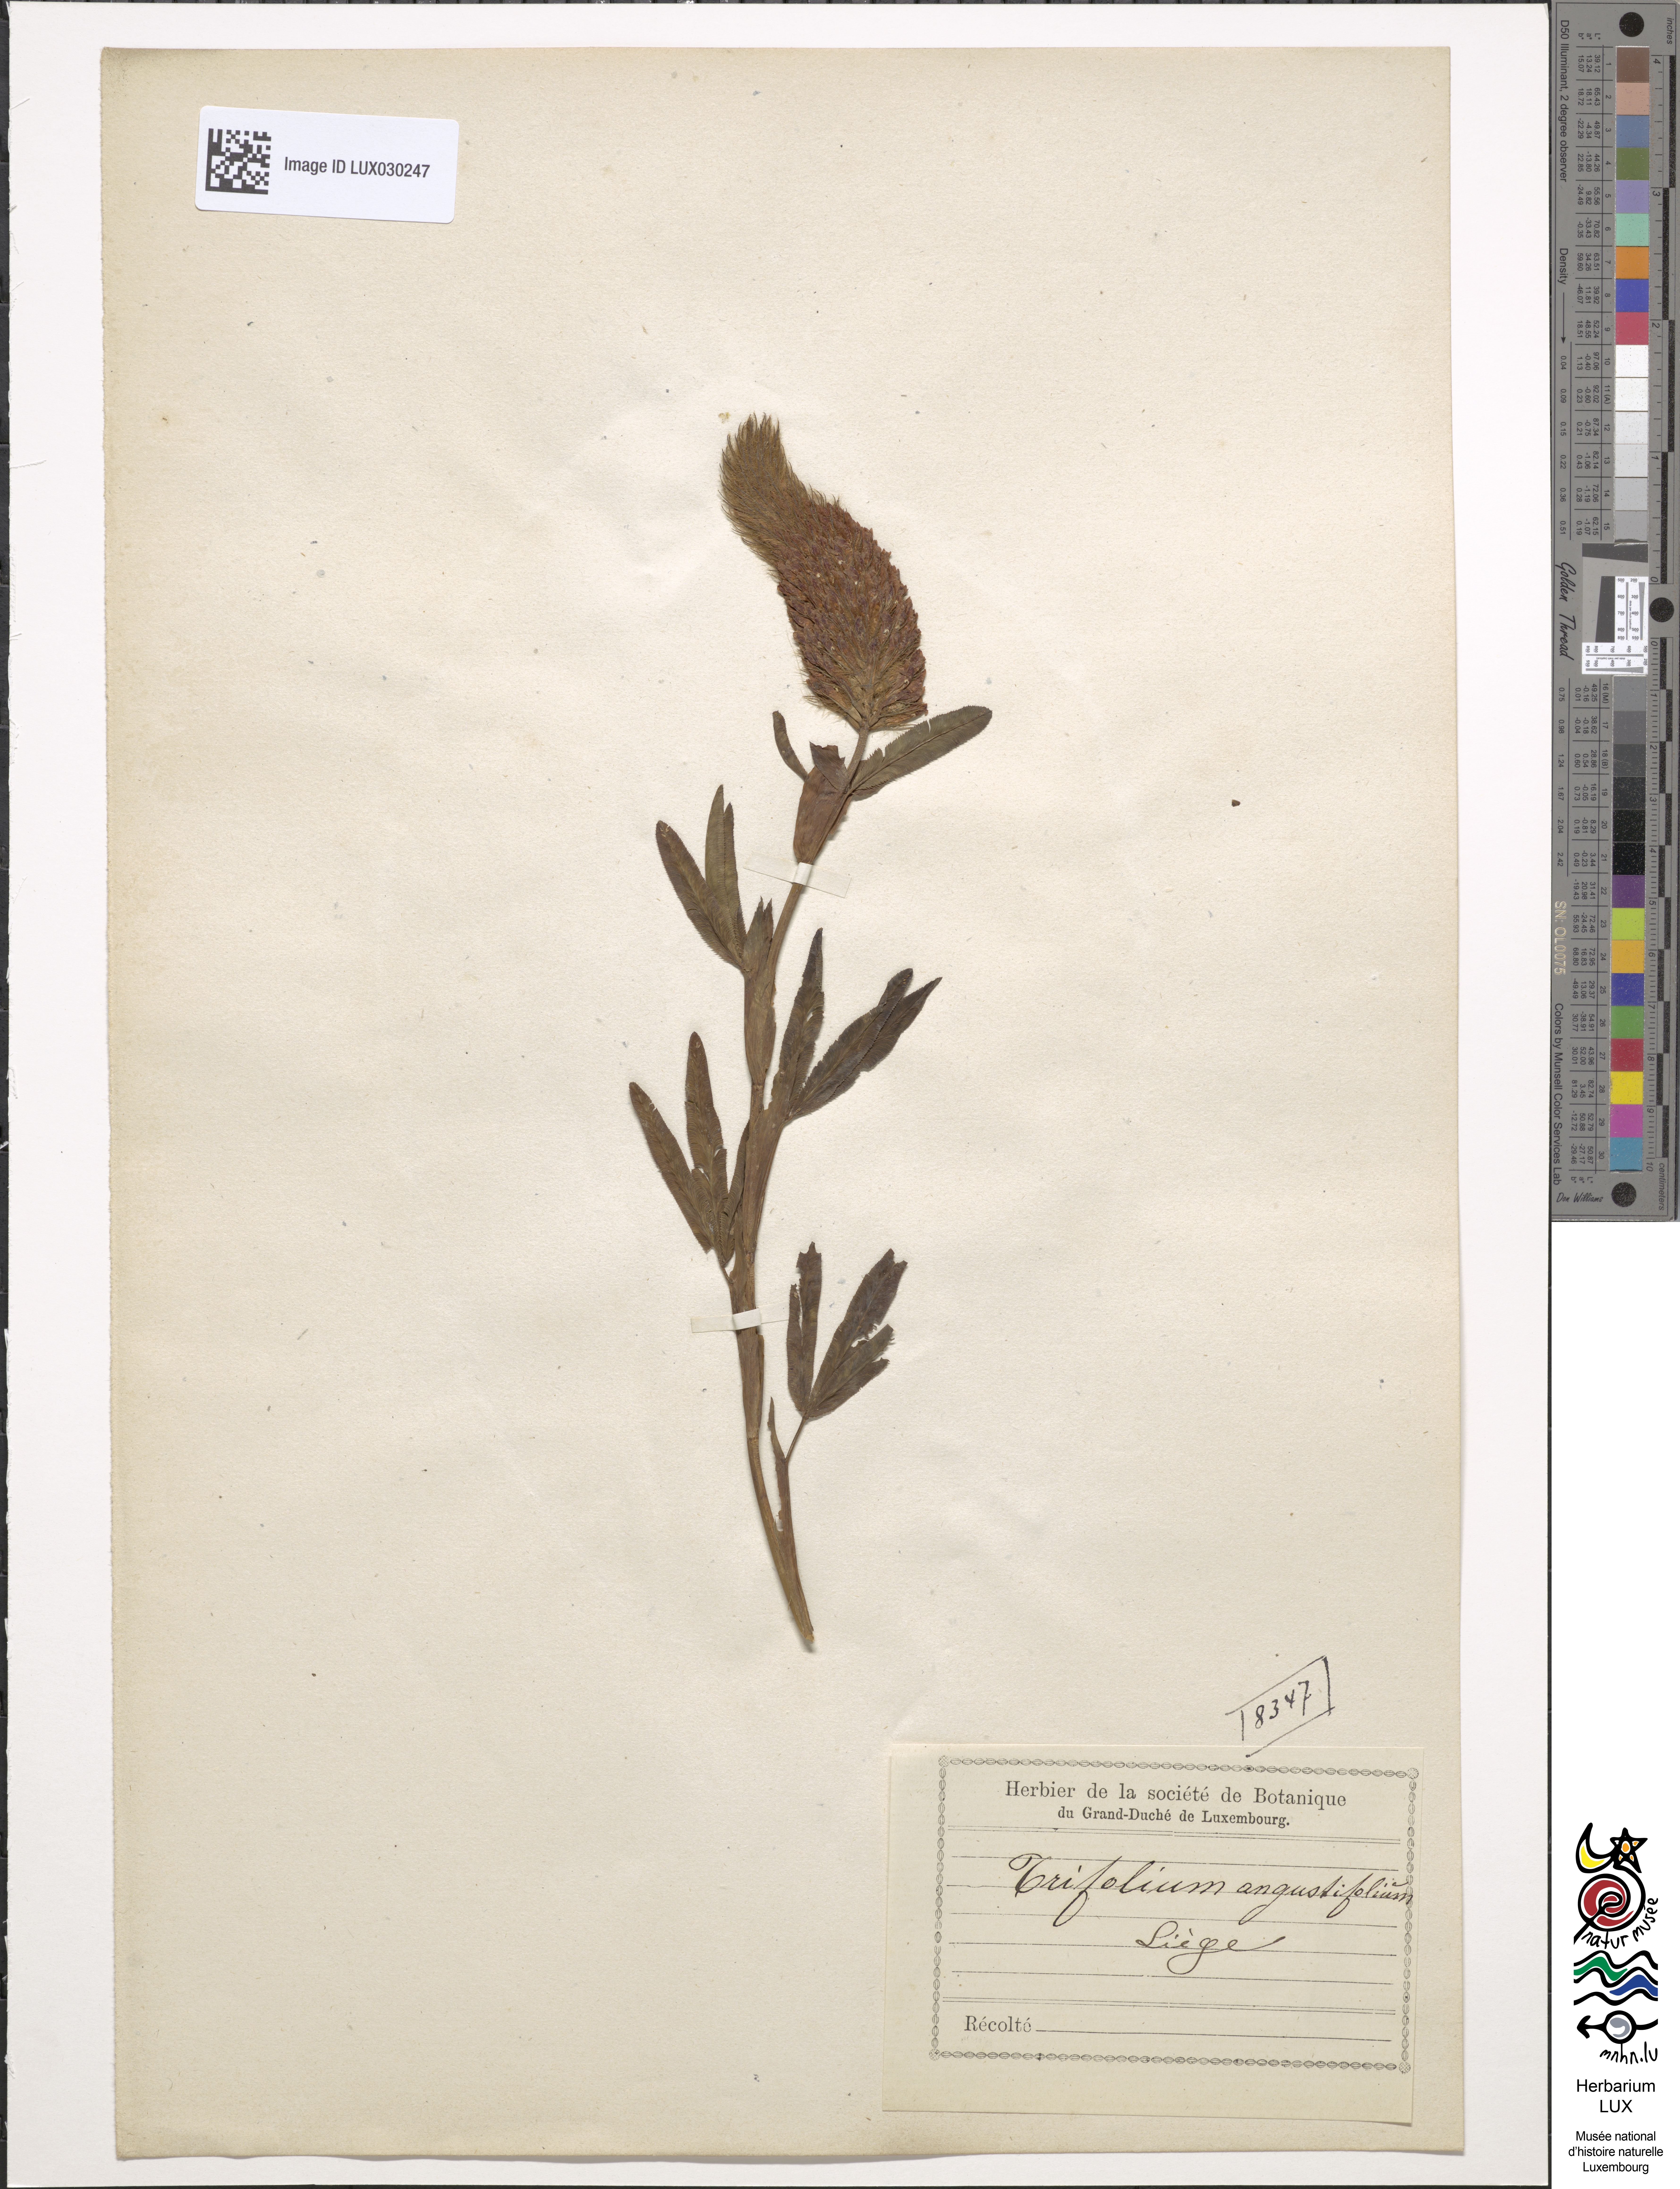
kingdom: Plantae
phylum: Tracheophyta
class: Magnoliopsida
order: Fabales
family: Fabaceae
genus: Trifolium
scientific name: Trifolium angustifolium
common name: Narrow clover
